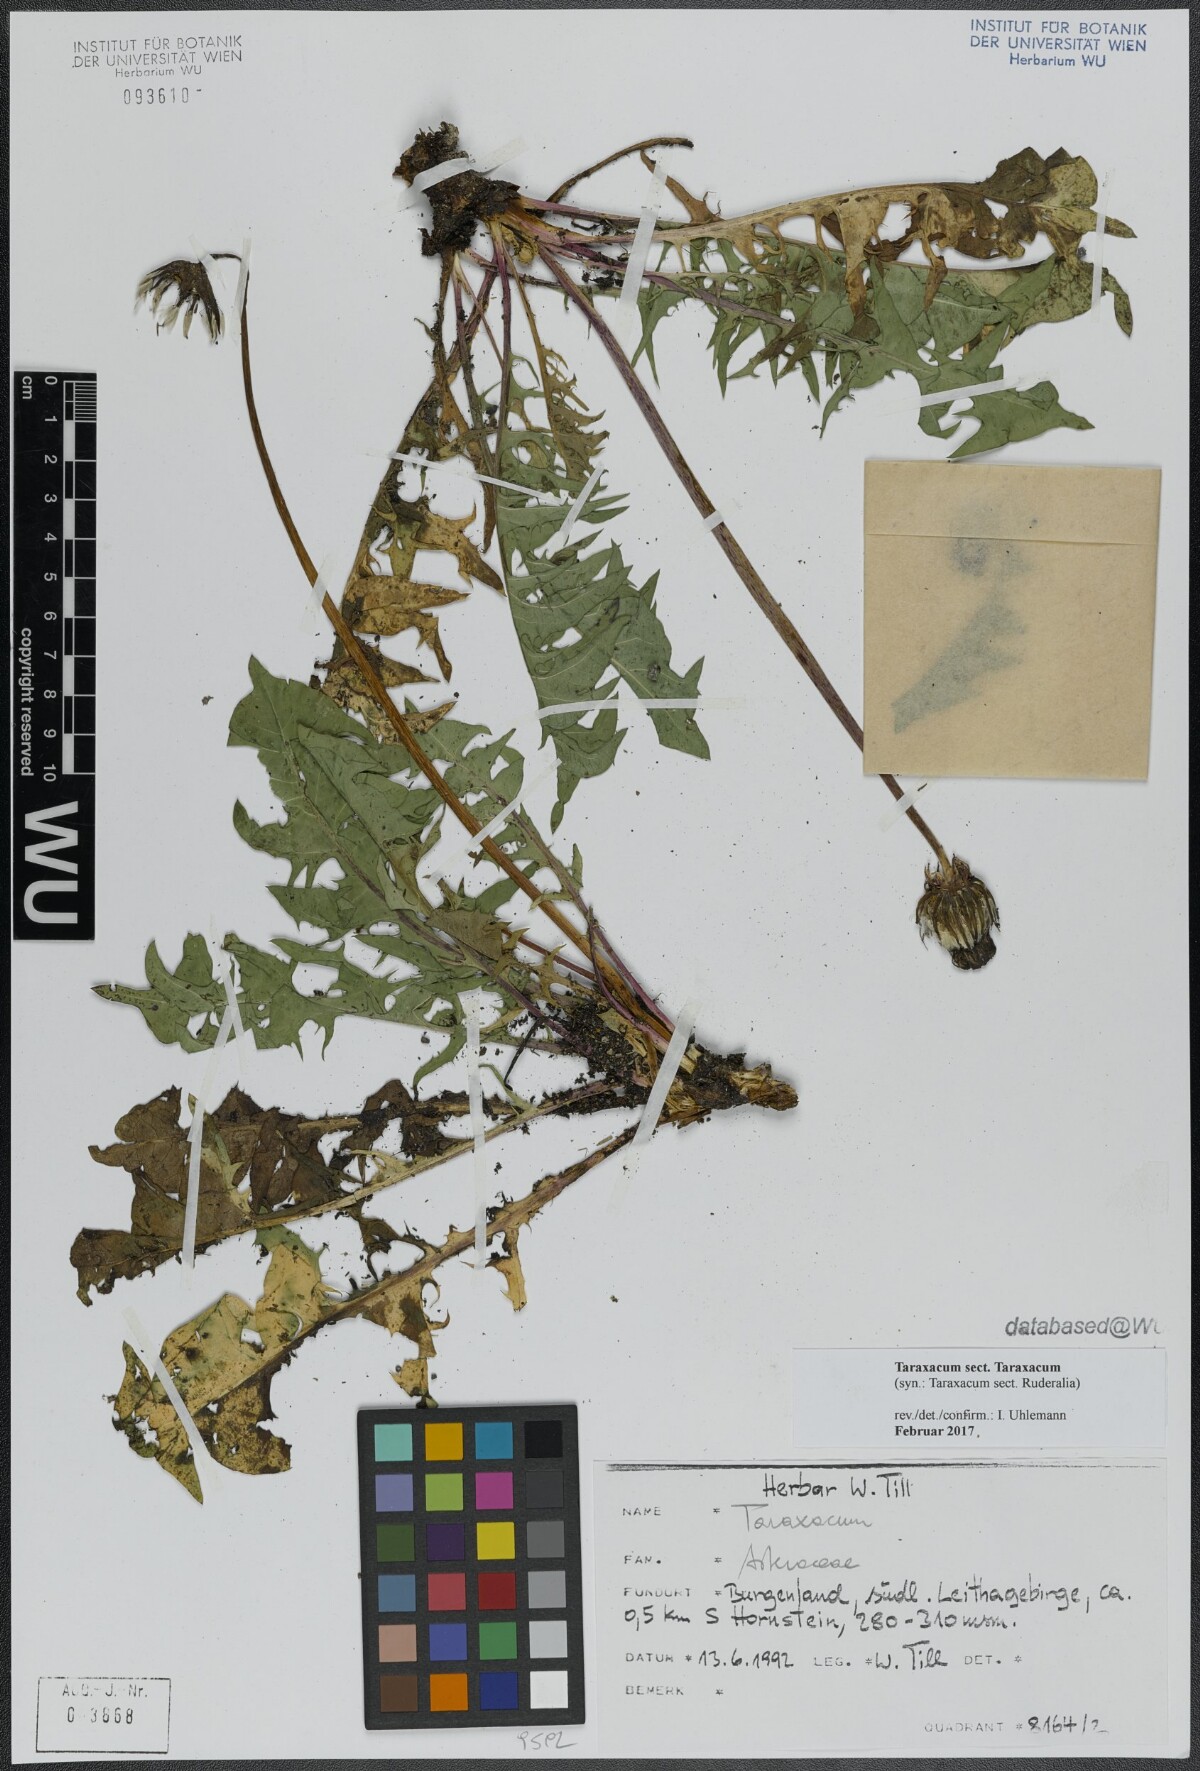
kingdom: Plantae
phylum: Tracheophyta
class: Magnoliopsida
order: Asterales
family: Asteraceae
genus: Taraxacum
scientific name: Taraxacum
